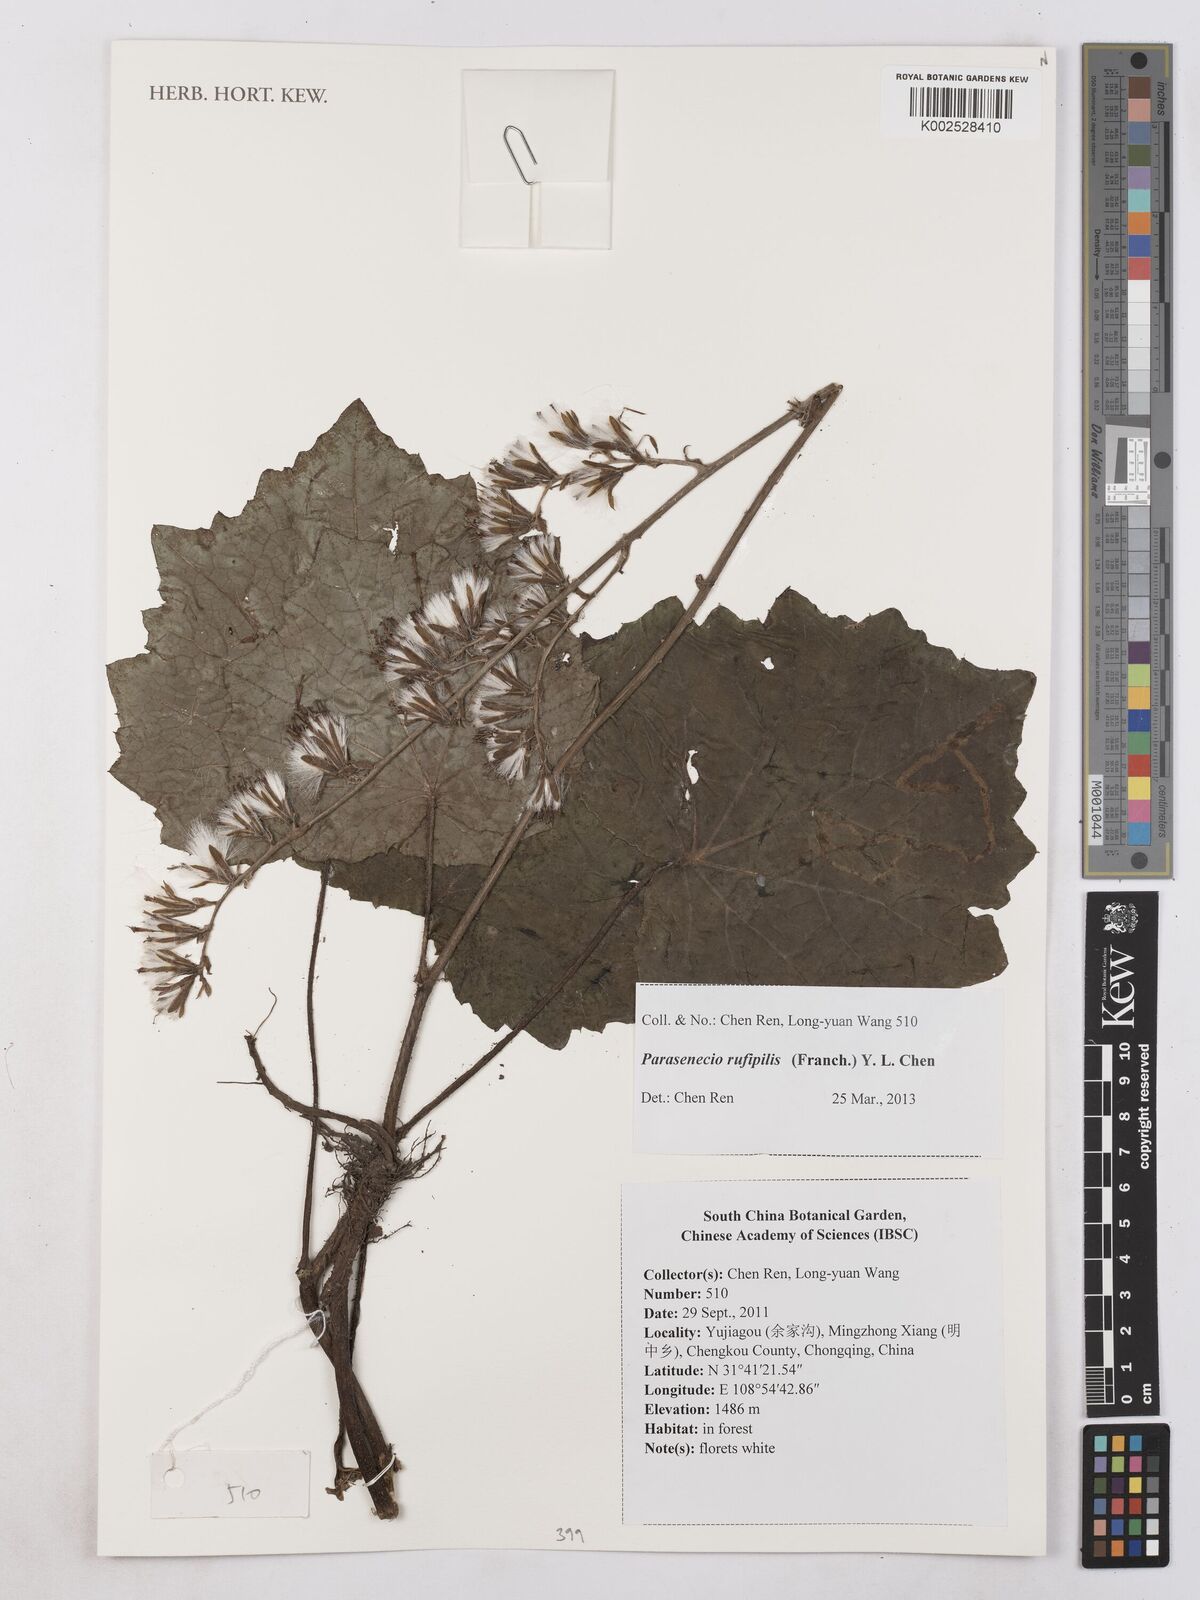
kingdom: Plantae
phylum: Tracheophyta
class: Magnoliopsida
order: Asterales
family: Asteraceae
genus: Parasenecio
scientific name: Parasenecio rufipilis
